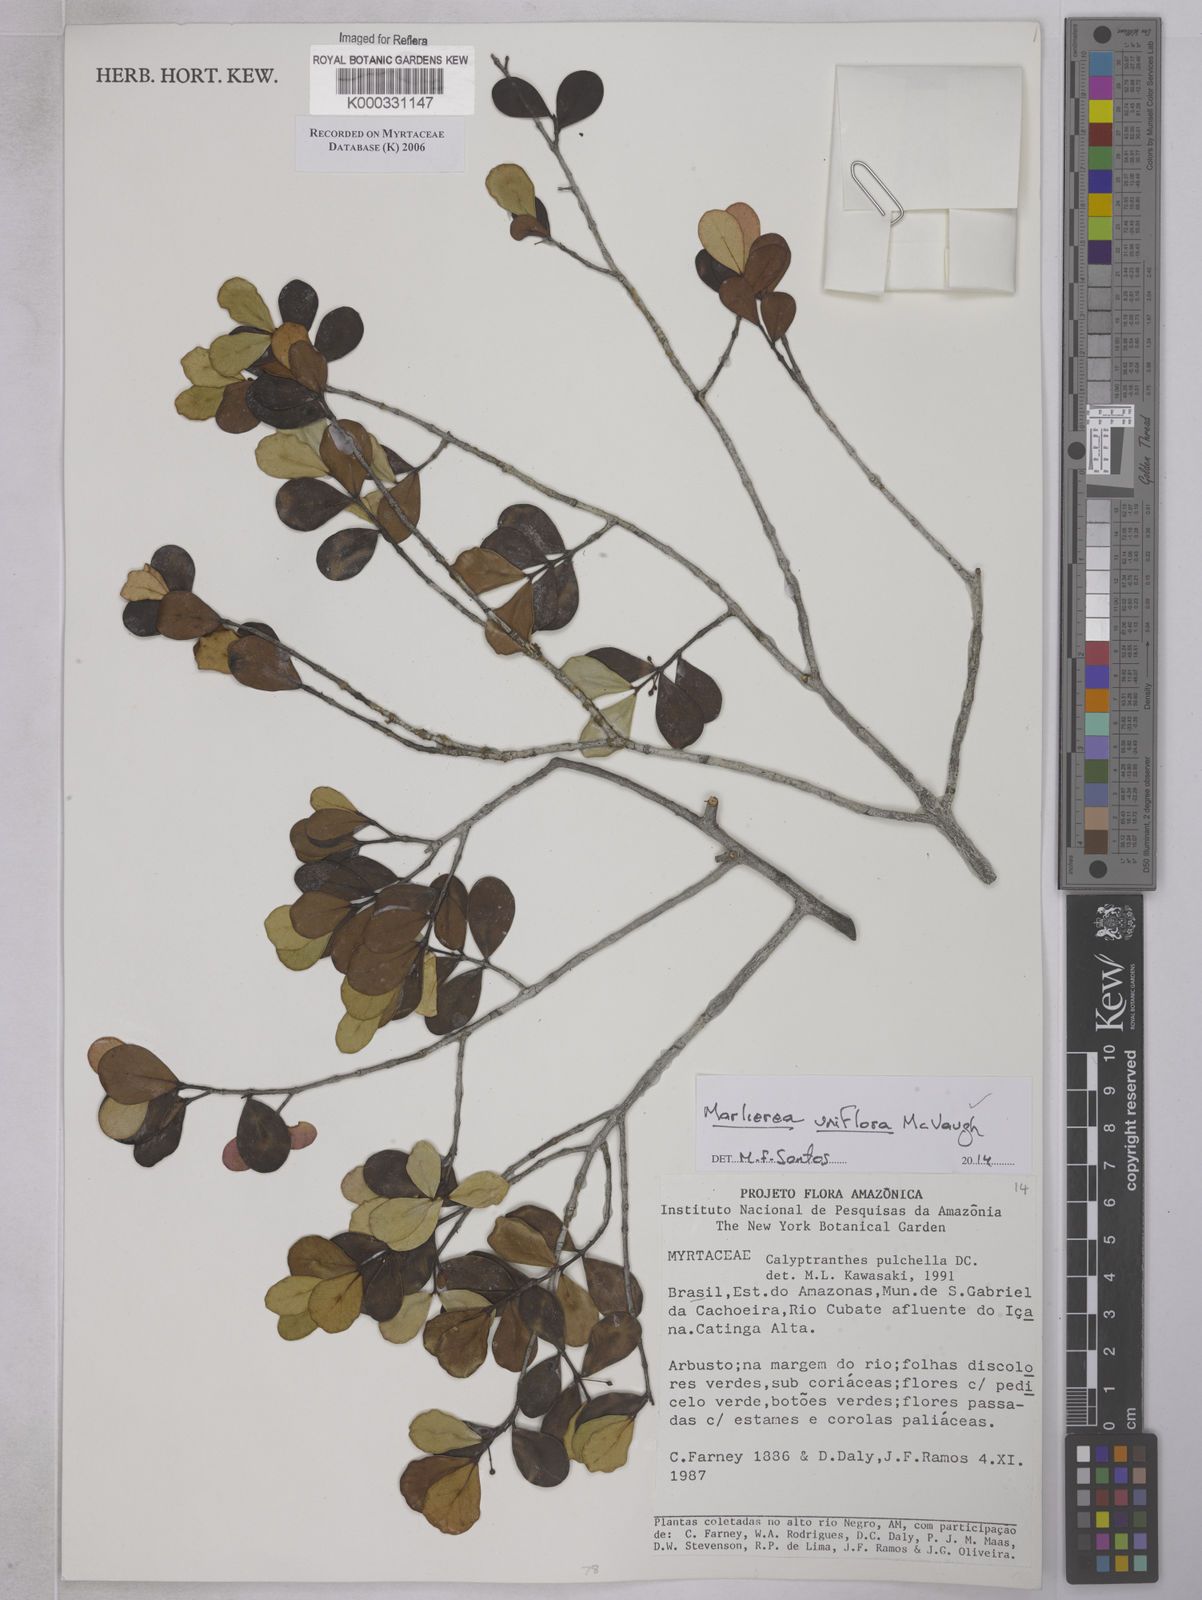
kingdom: Plantae
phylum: Tracheophyta
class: Magnoliopsida
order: Myrtales
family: Myrtaceae
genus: Myrcia
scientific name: Myrcia pulchella
